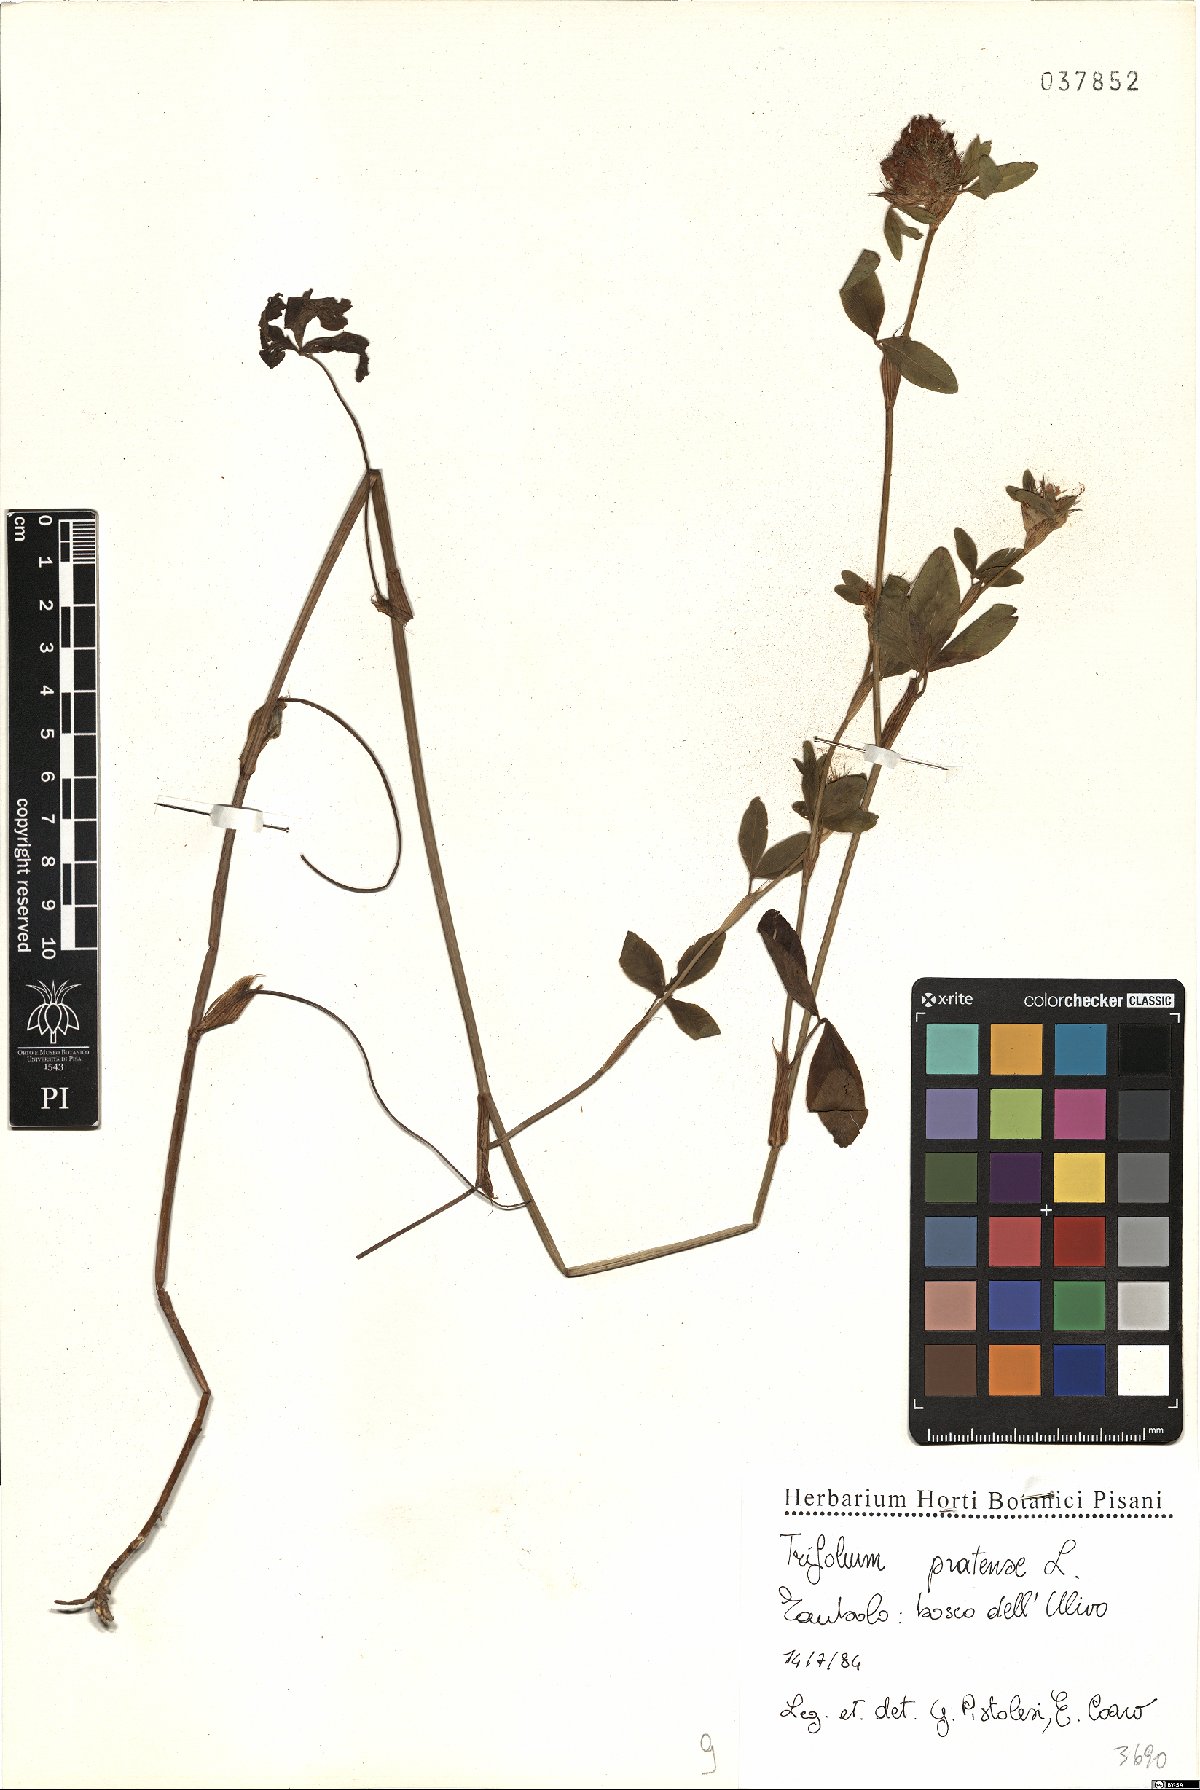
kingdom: Plantae
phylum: Tracheophyta
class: Magnoliopsida
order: Fabales
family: Fabaceae
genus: Trifolium
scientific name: Trifolium pratense
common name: Red clover
